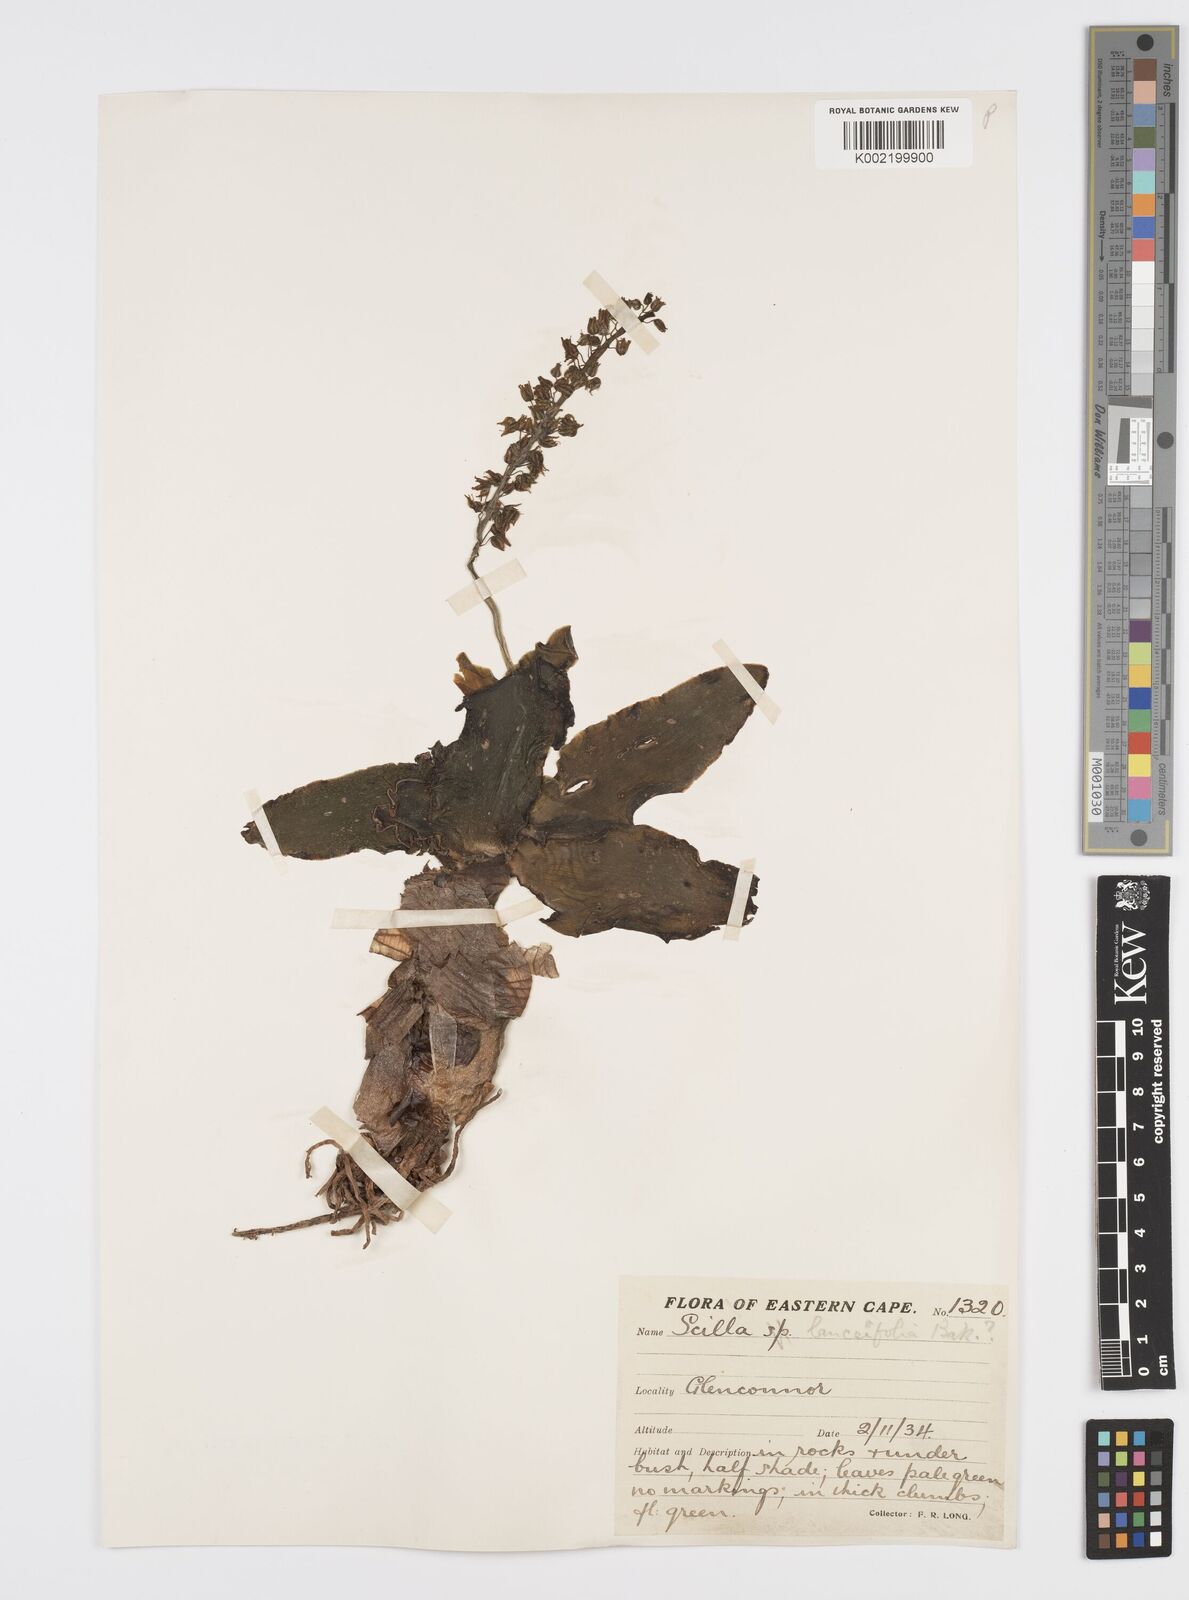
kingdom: Plantae
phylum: Tracheophyta
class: Liliopsida
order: Asparagales
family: Asparagaceae
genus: Ledebouria
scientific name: Ledebouria revoluta
